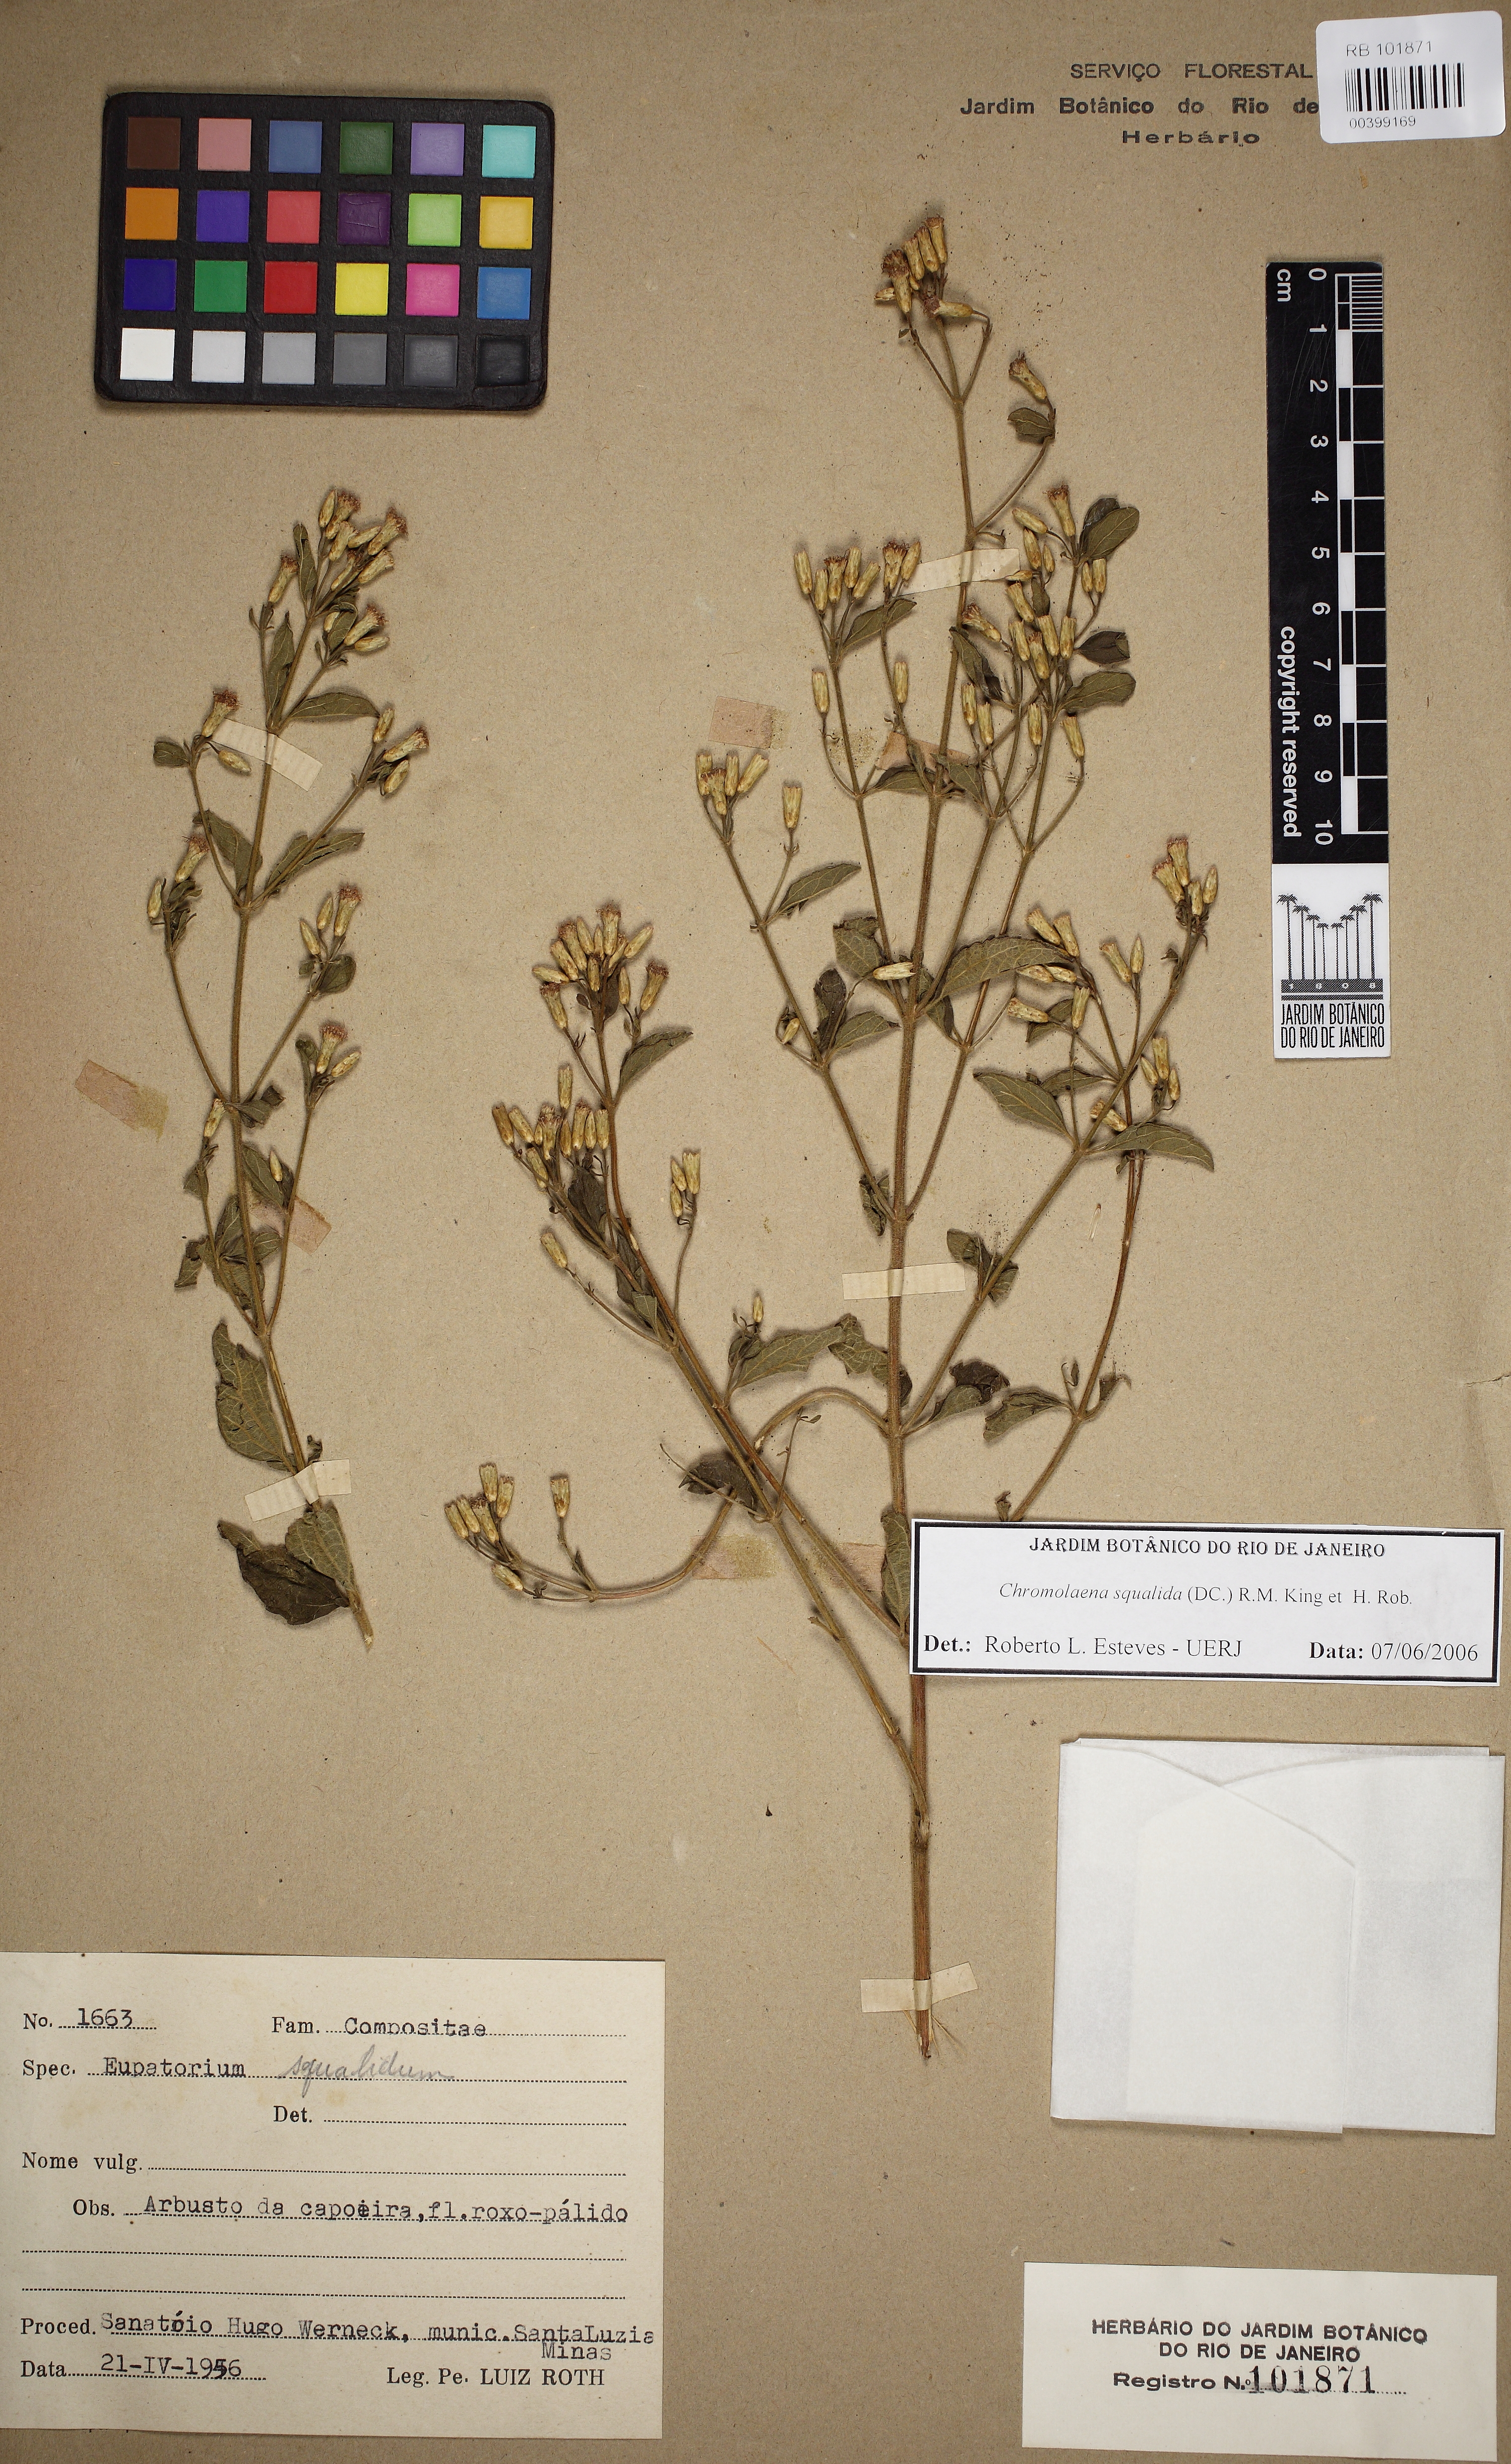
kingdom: Plantae
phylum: Tracheophyta
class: Magnoliopsida
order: Asterales
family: Asteraceae
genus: Chromolaena
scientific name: Chromolaena squalida
